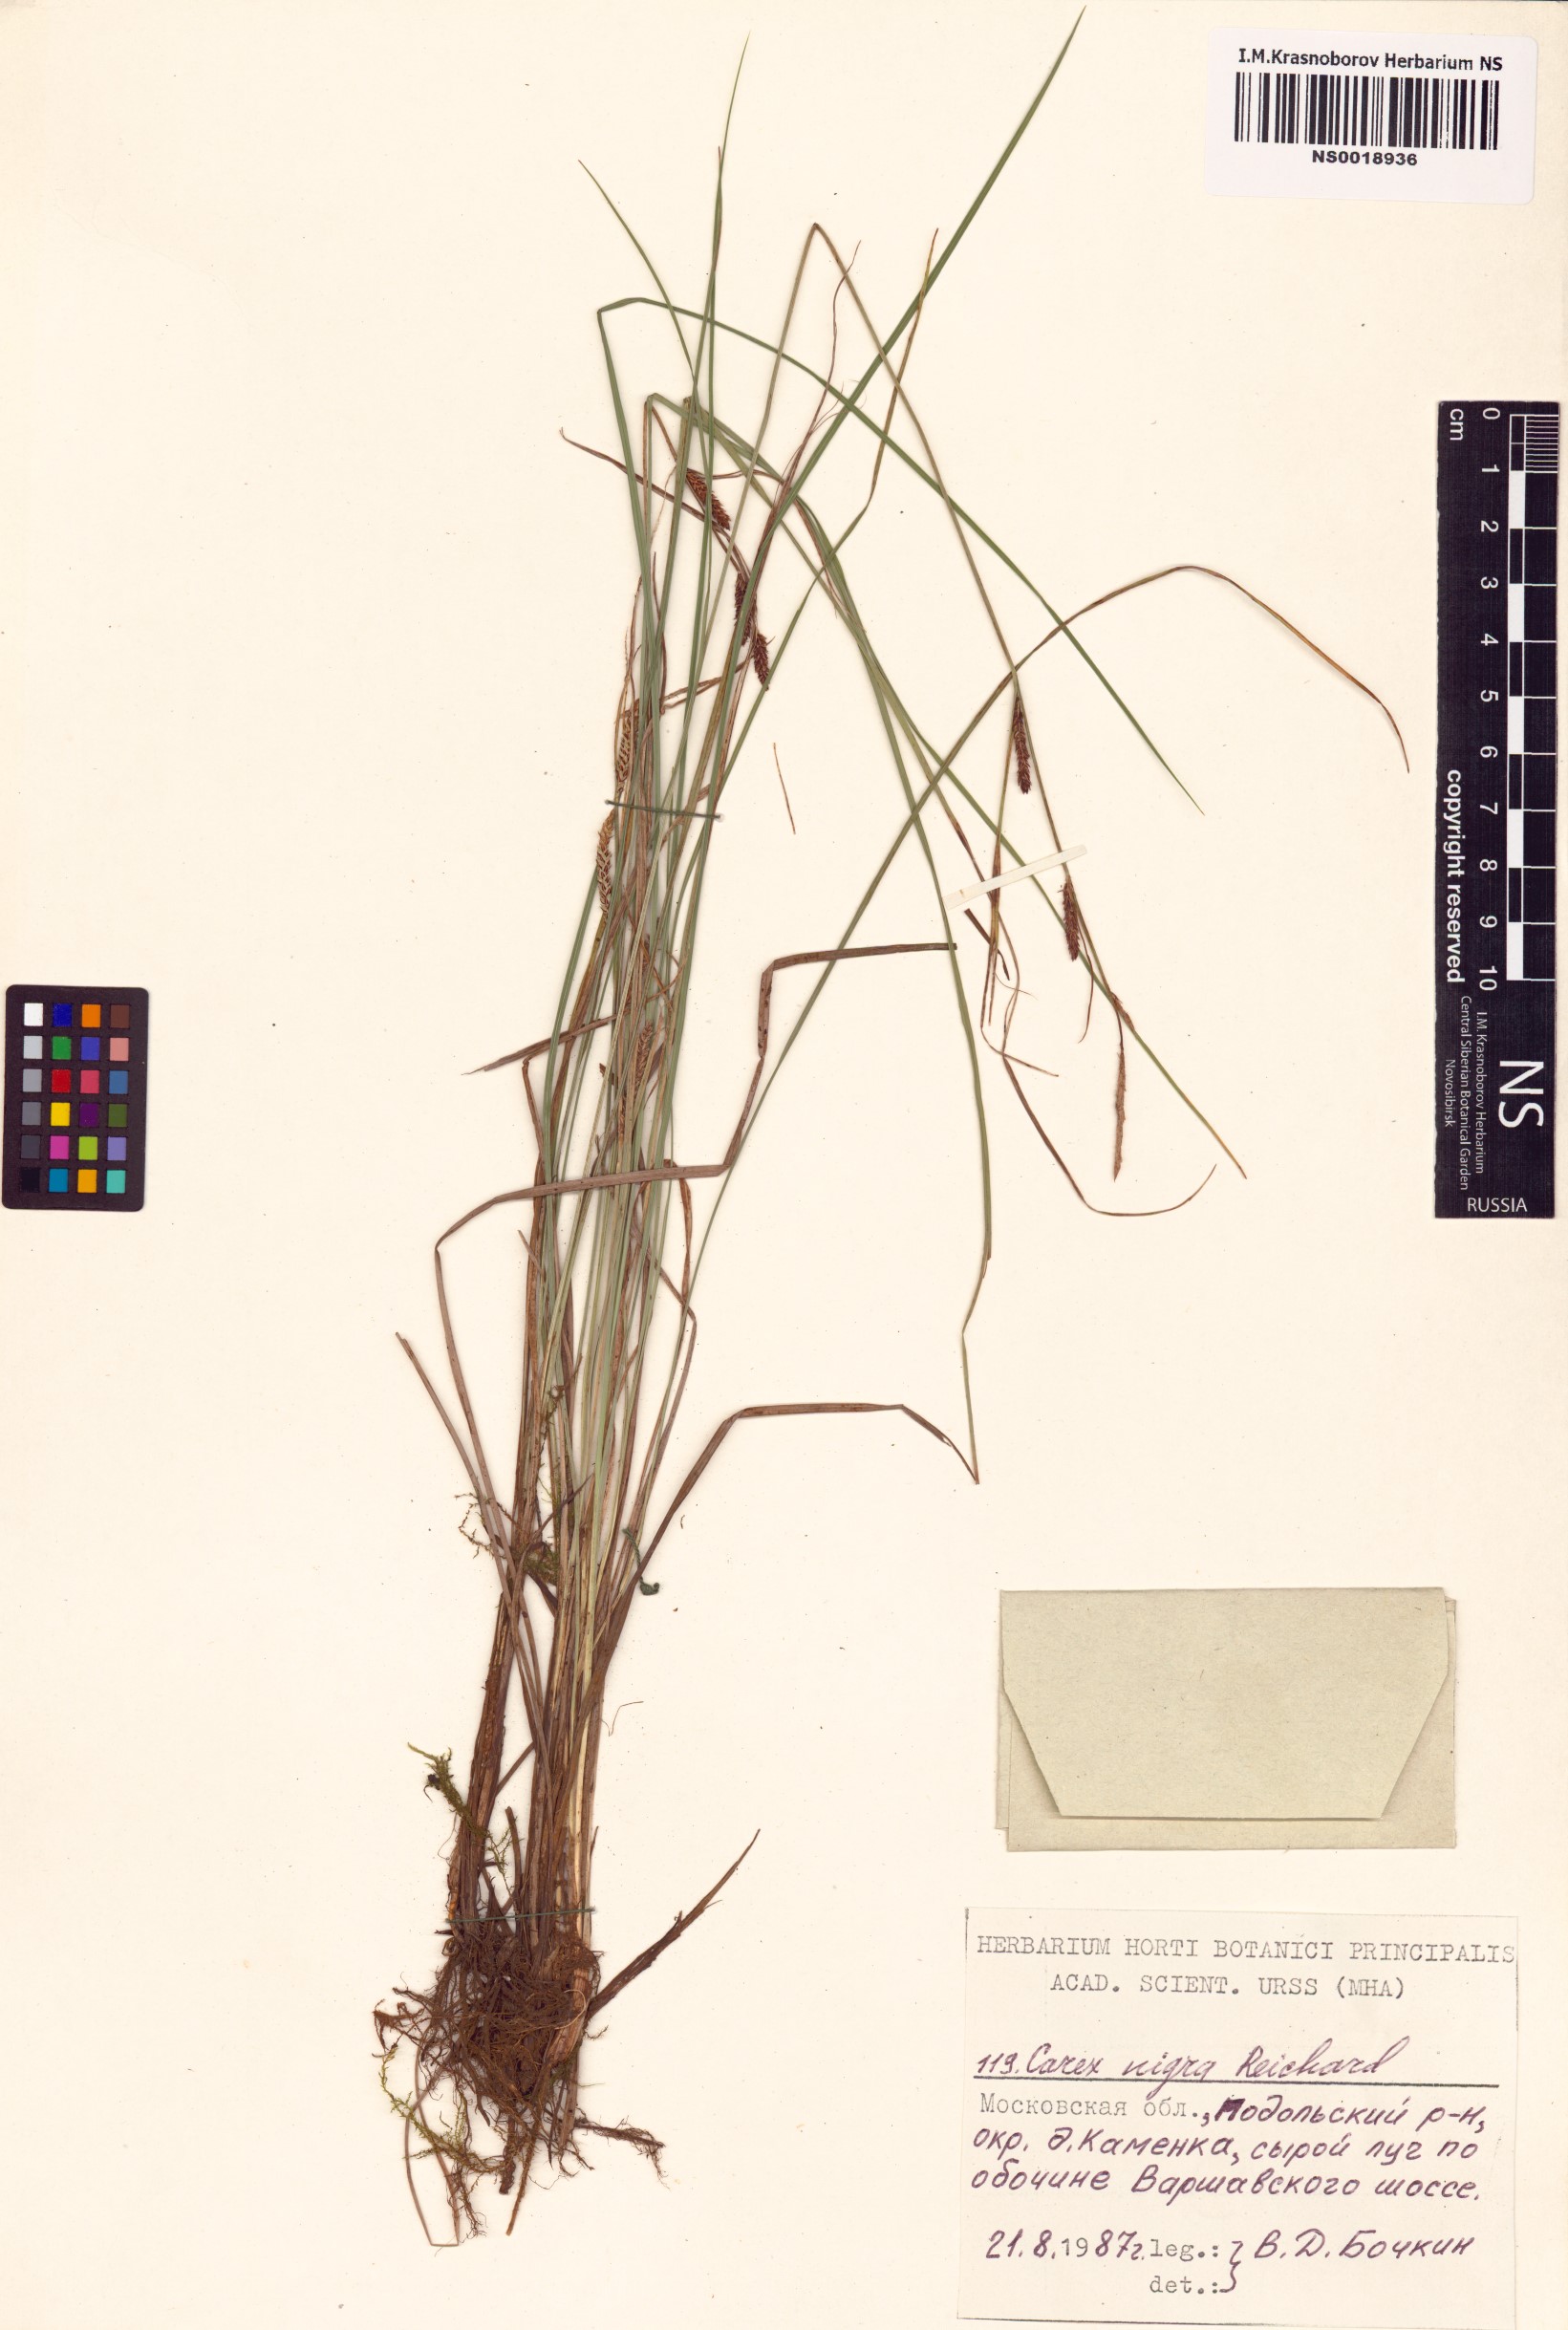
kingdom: Plantae
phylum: Tracheophyta
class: Liliopsida
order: Poales
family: Cyperaceae
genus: Carex
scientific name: Carex nigra
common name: Common sedge
